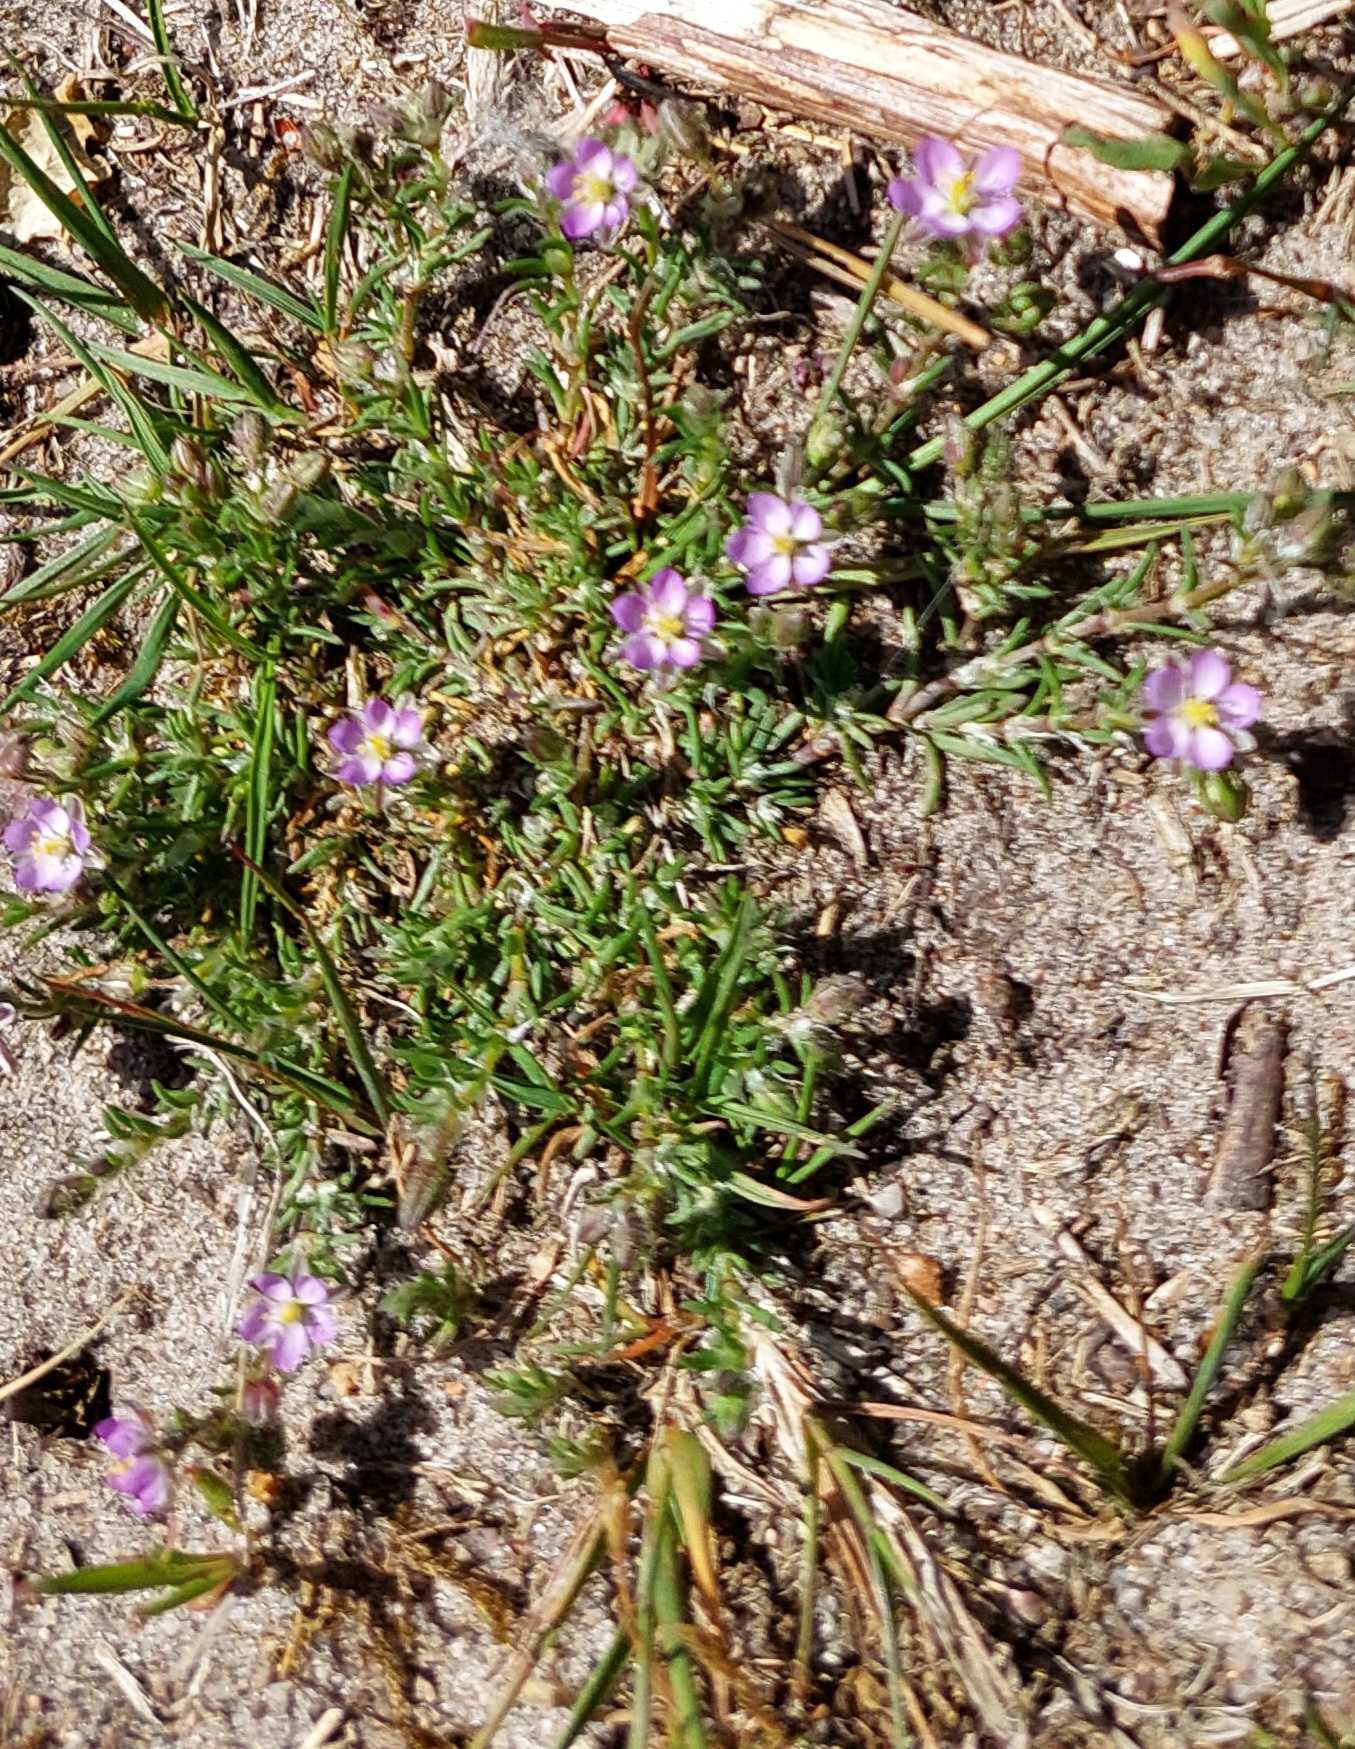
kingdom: Plantae
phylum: Tracheophyta
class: Magnoliopsida
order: Caryophyllales
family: Caryophyllaceae
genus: Spergularia
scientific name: Spergularia marina
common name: Kødet hindeknæ
